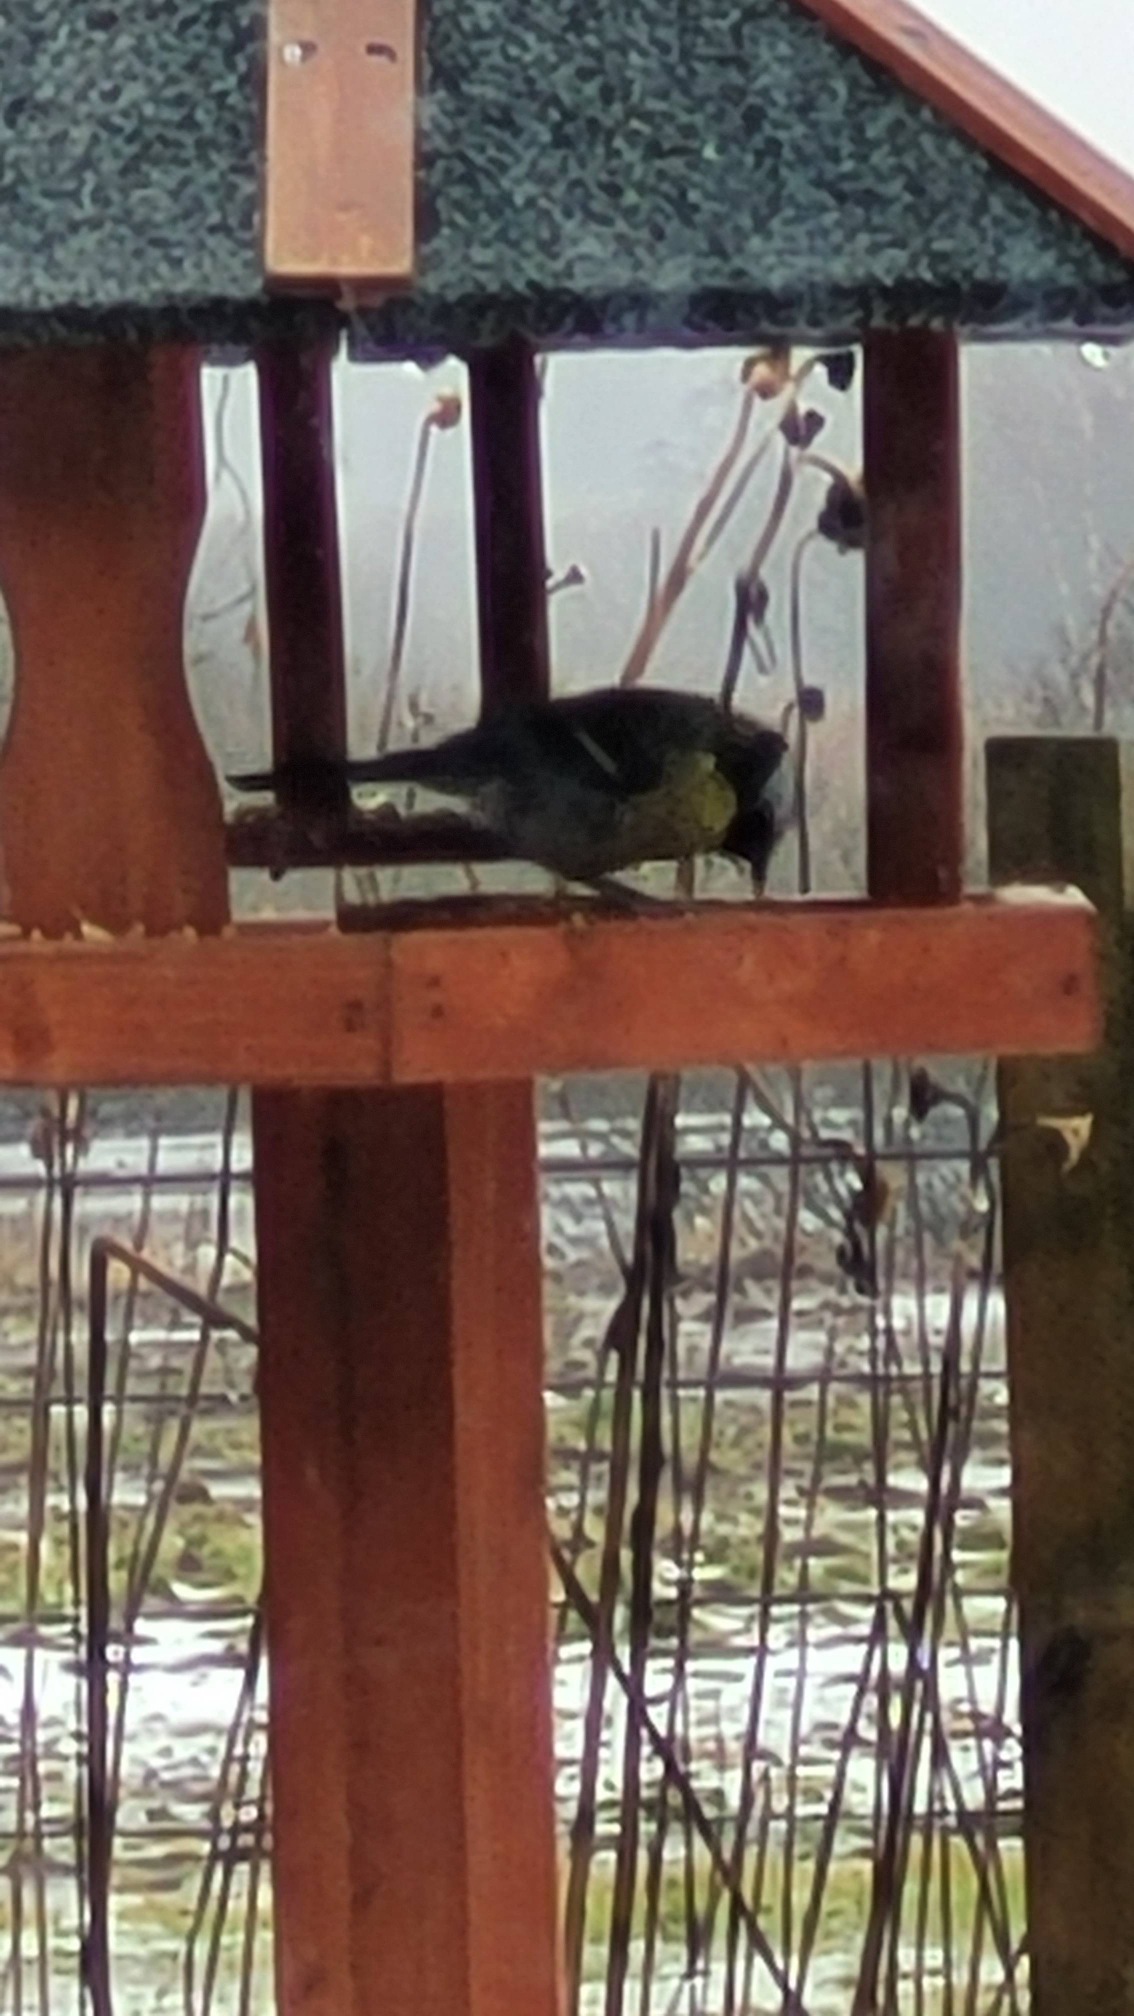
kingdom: Animalia
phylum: Chordata
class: Aves
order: Passeriformes
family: Paridae
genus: Parus
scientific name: Parus major
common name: Musvit
